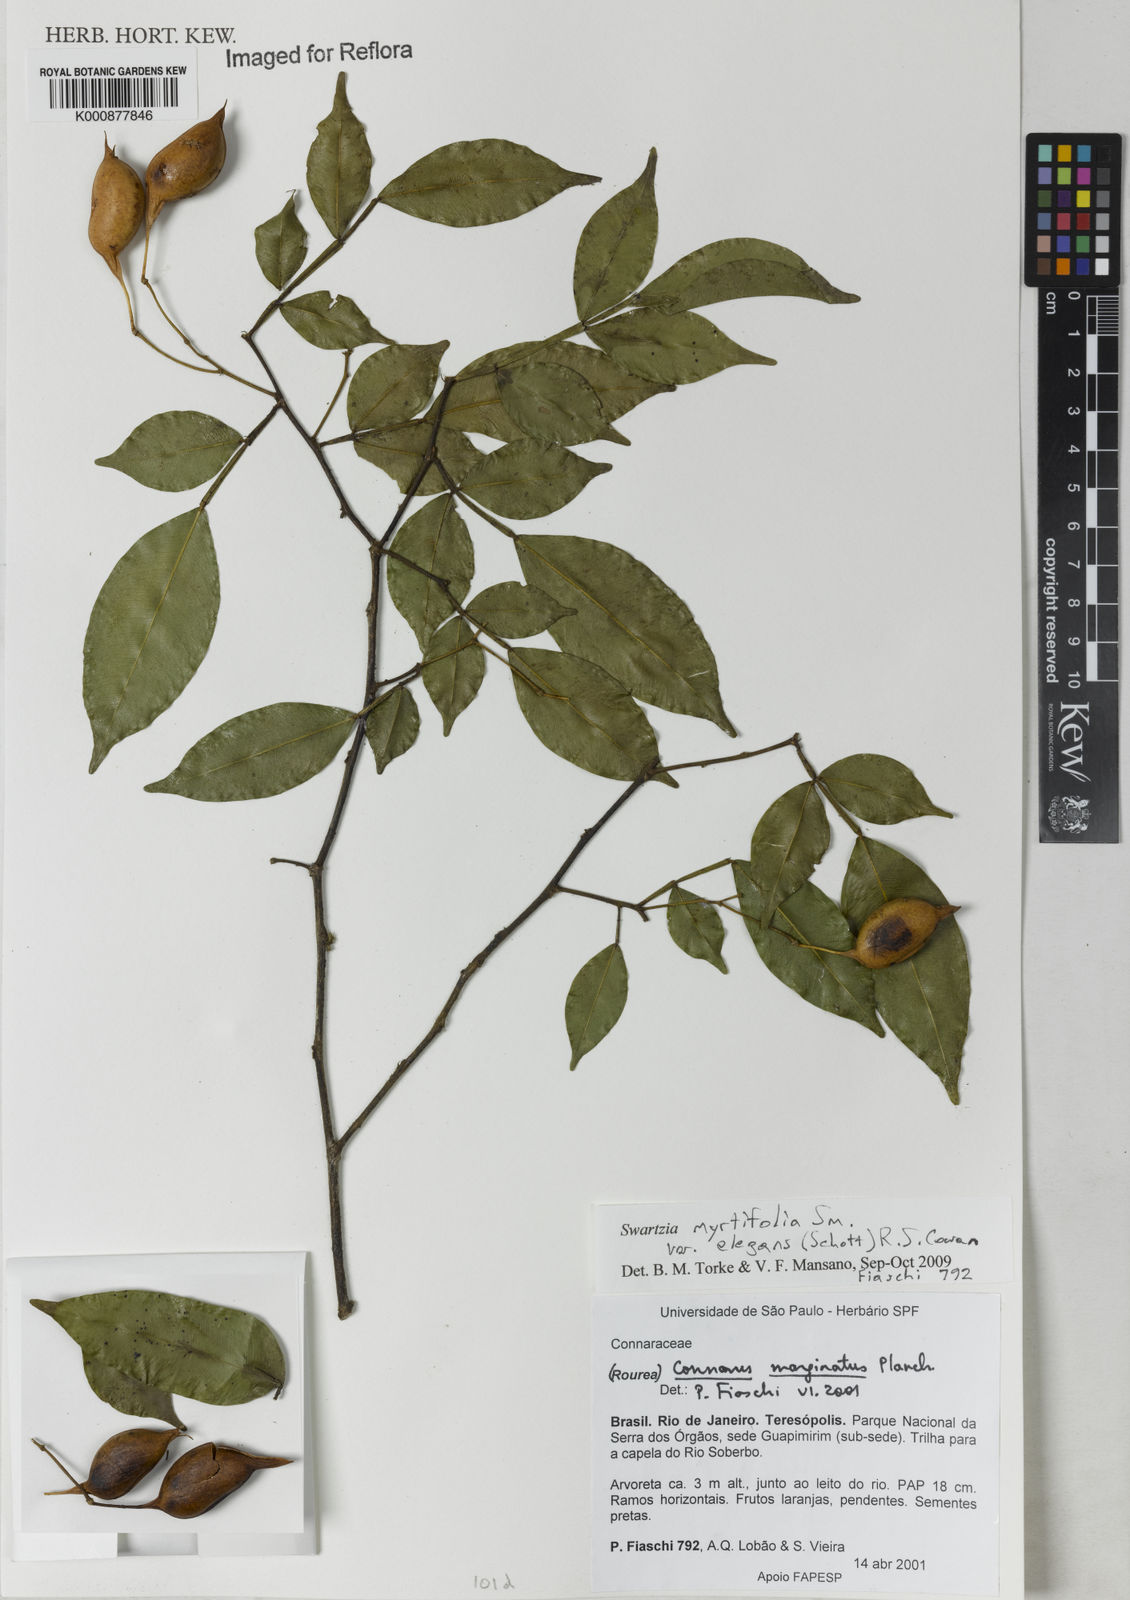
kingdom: Plantae
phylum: Tracheophyta
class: Magnoliopsida
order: Fabales
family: Fabaceae
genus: Swartzia
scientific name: Swartzia myrtifolia
